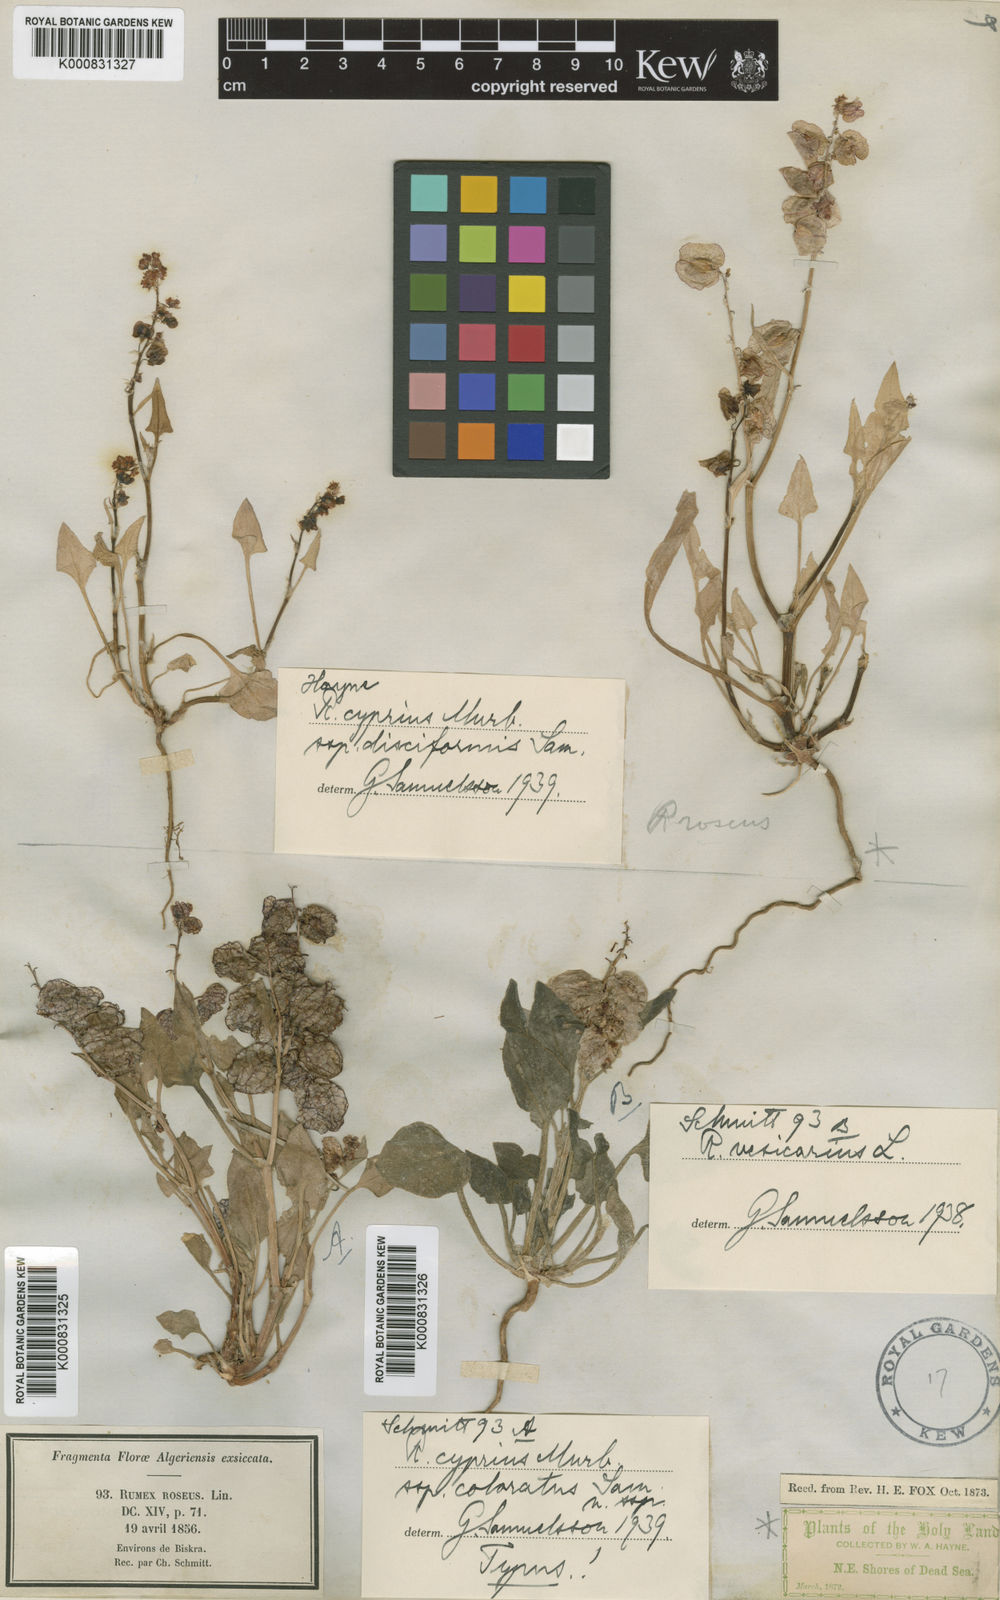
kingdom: Plantae
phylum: Tracheophyta
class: Magnoliopsida
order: Caryophyllales
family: Polygonaceae
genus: Rumex
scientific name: Rumex cyprius
